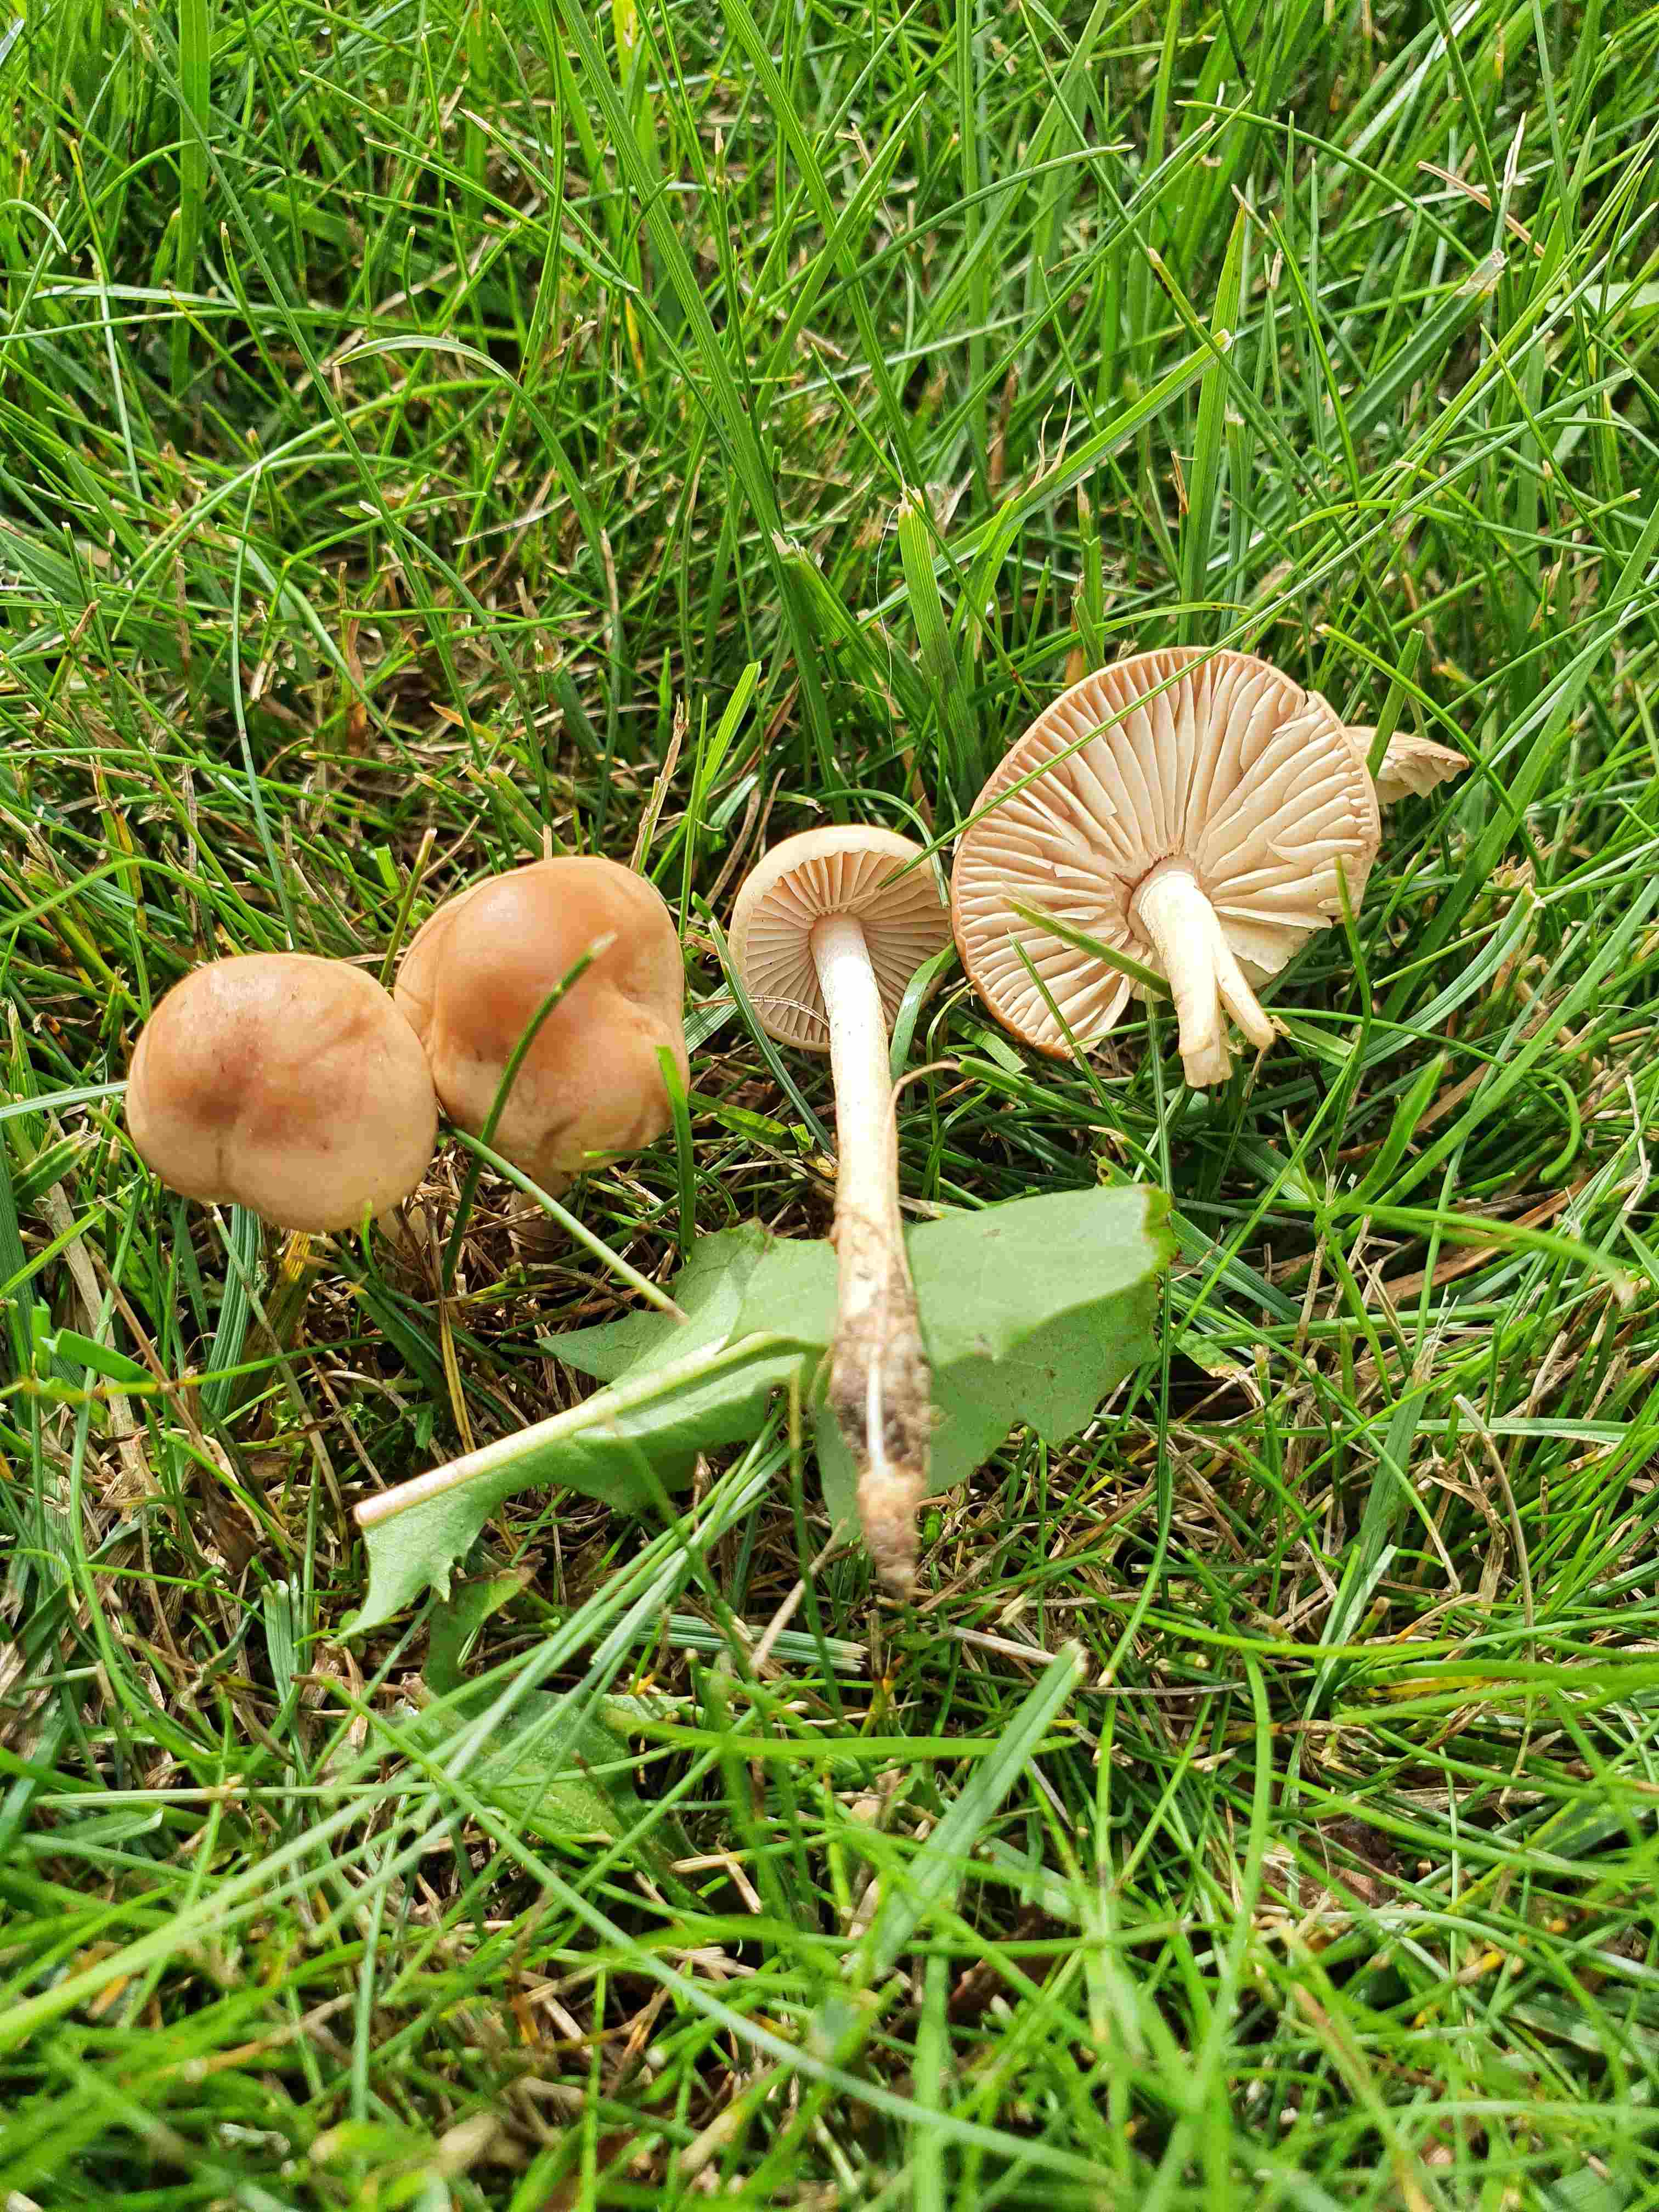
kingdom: Fungi
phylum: Basidiomycota
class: Agaricomycetes
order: Agaricales
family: Marasmiaceae
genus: Marasmius
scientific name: Marasmius oreades
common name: elledans-bruskhat
